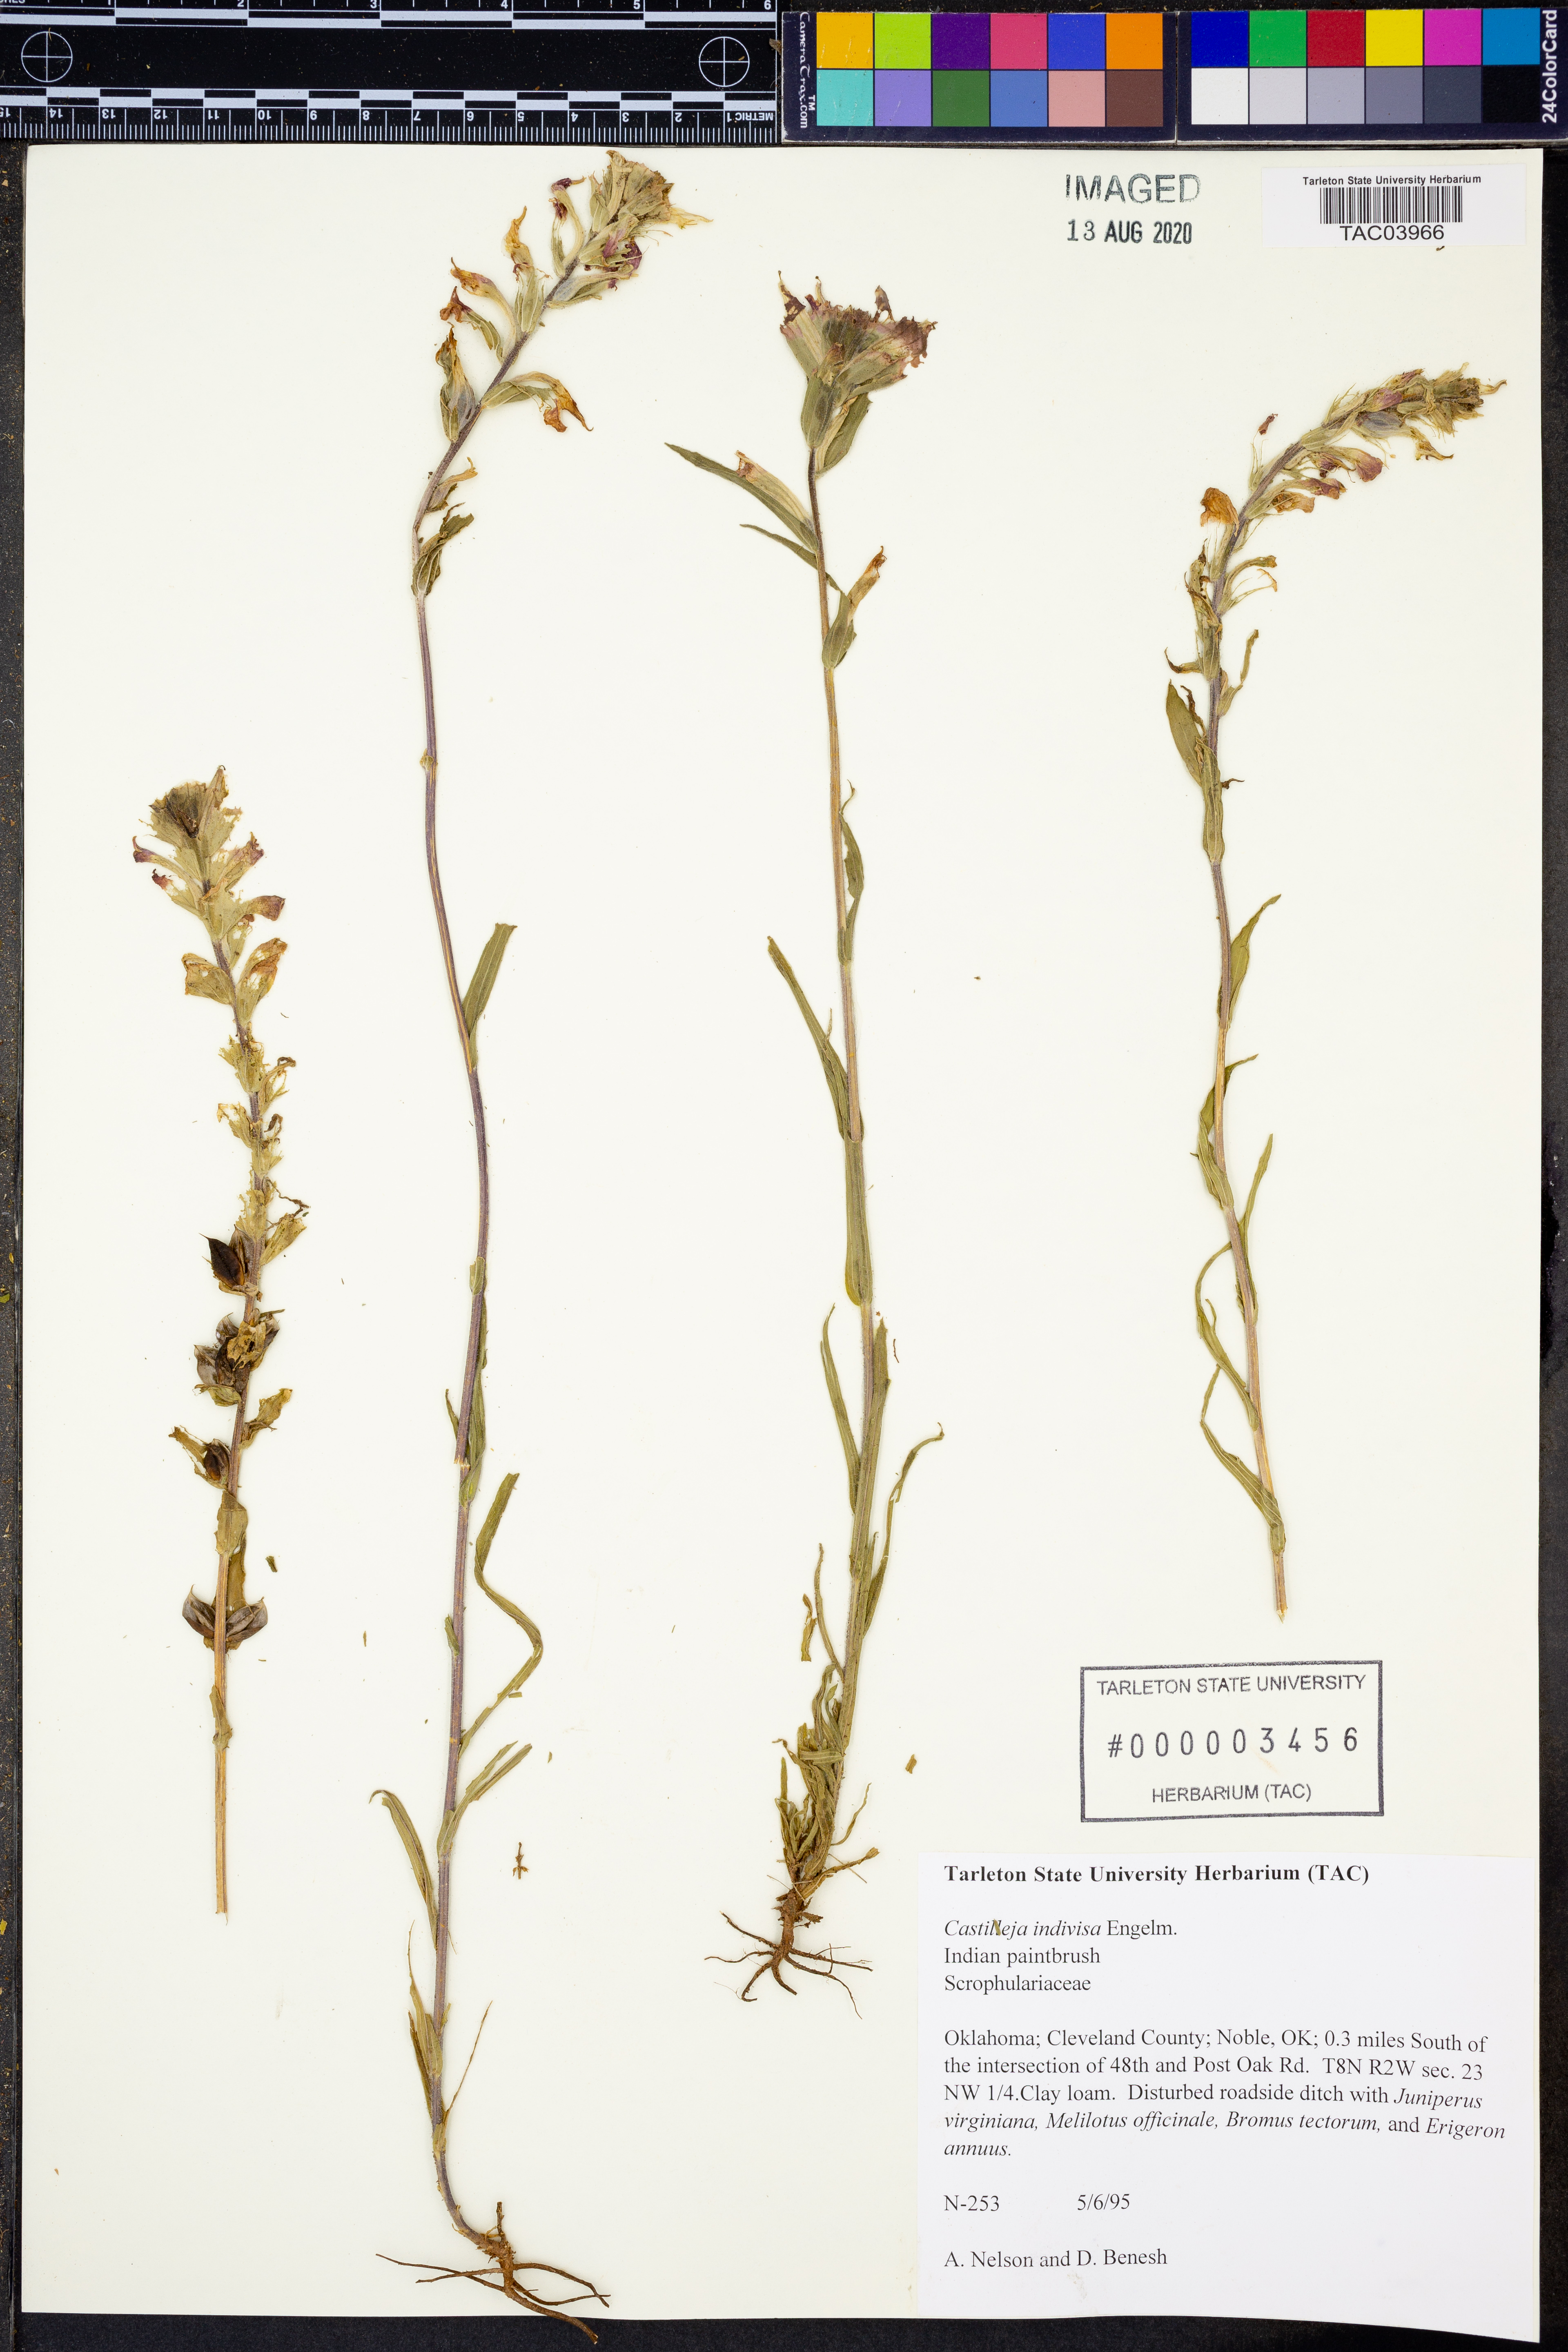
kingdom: Plantae
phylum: Tracheophyta
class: Magnoliopsida
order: Lamiales
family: Orobanchaceae
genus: Castilleja
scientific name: Castilleja indivisa
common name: Texas paintbrush
